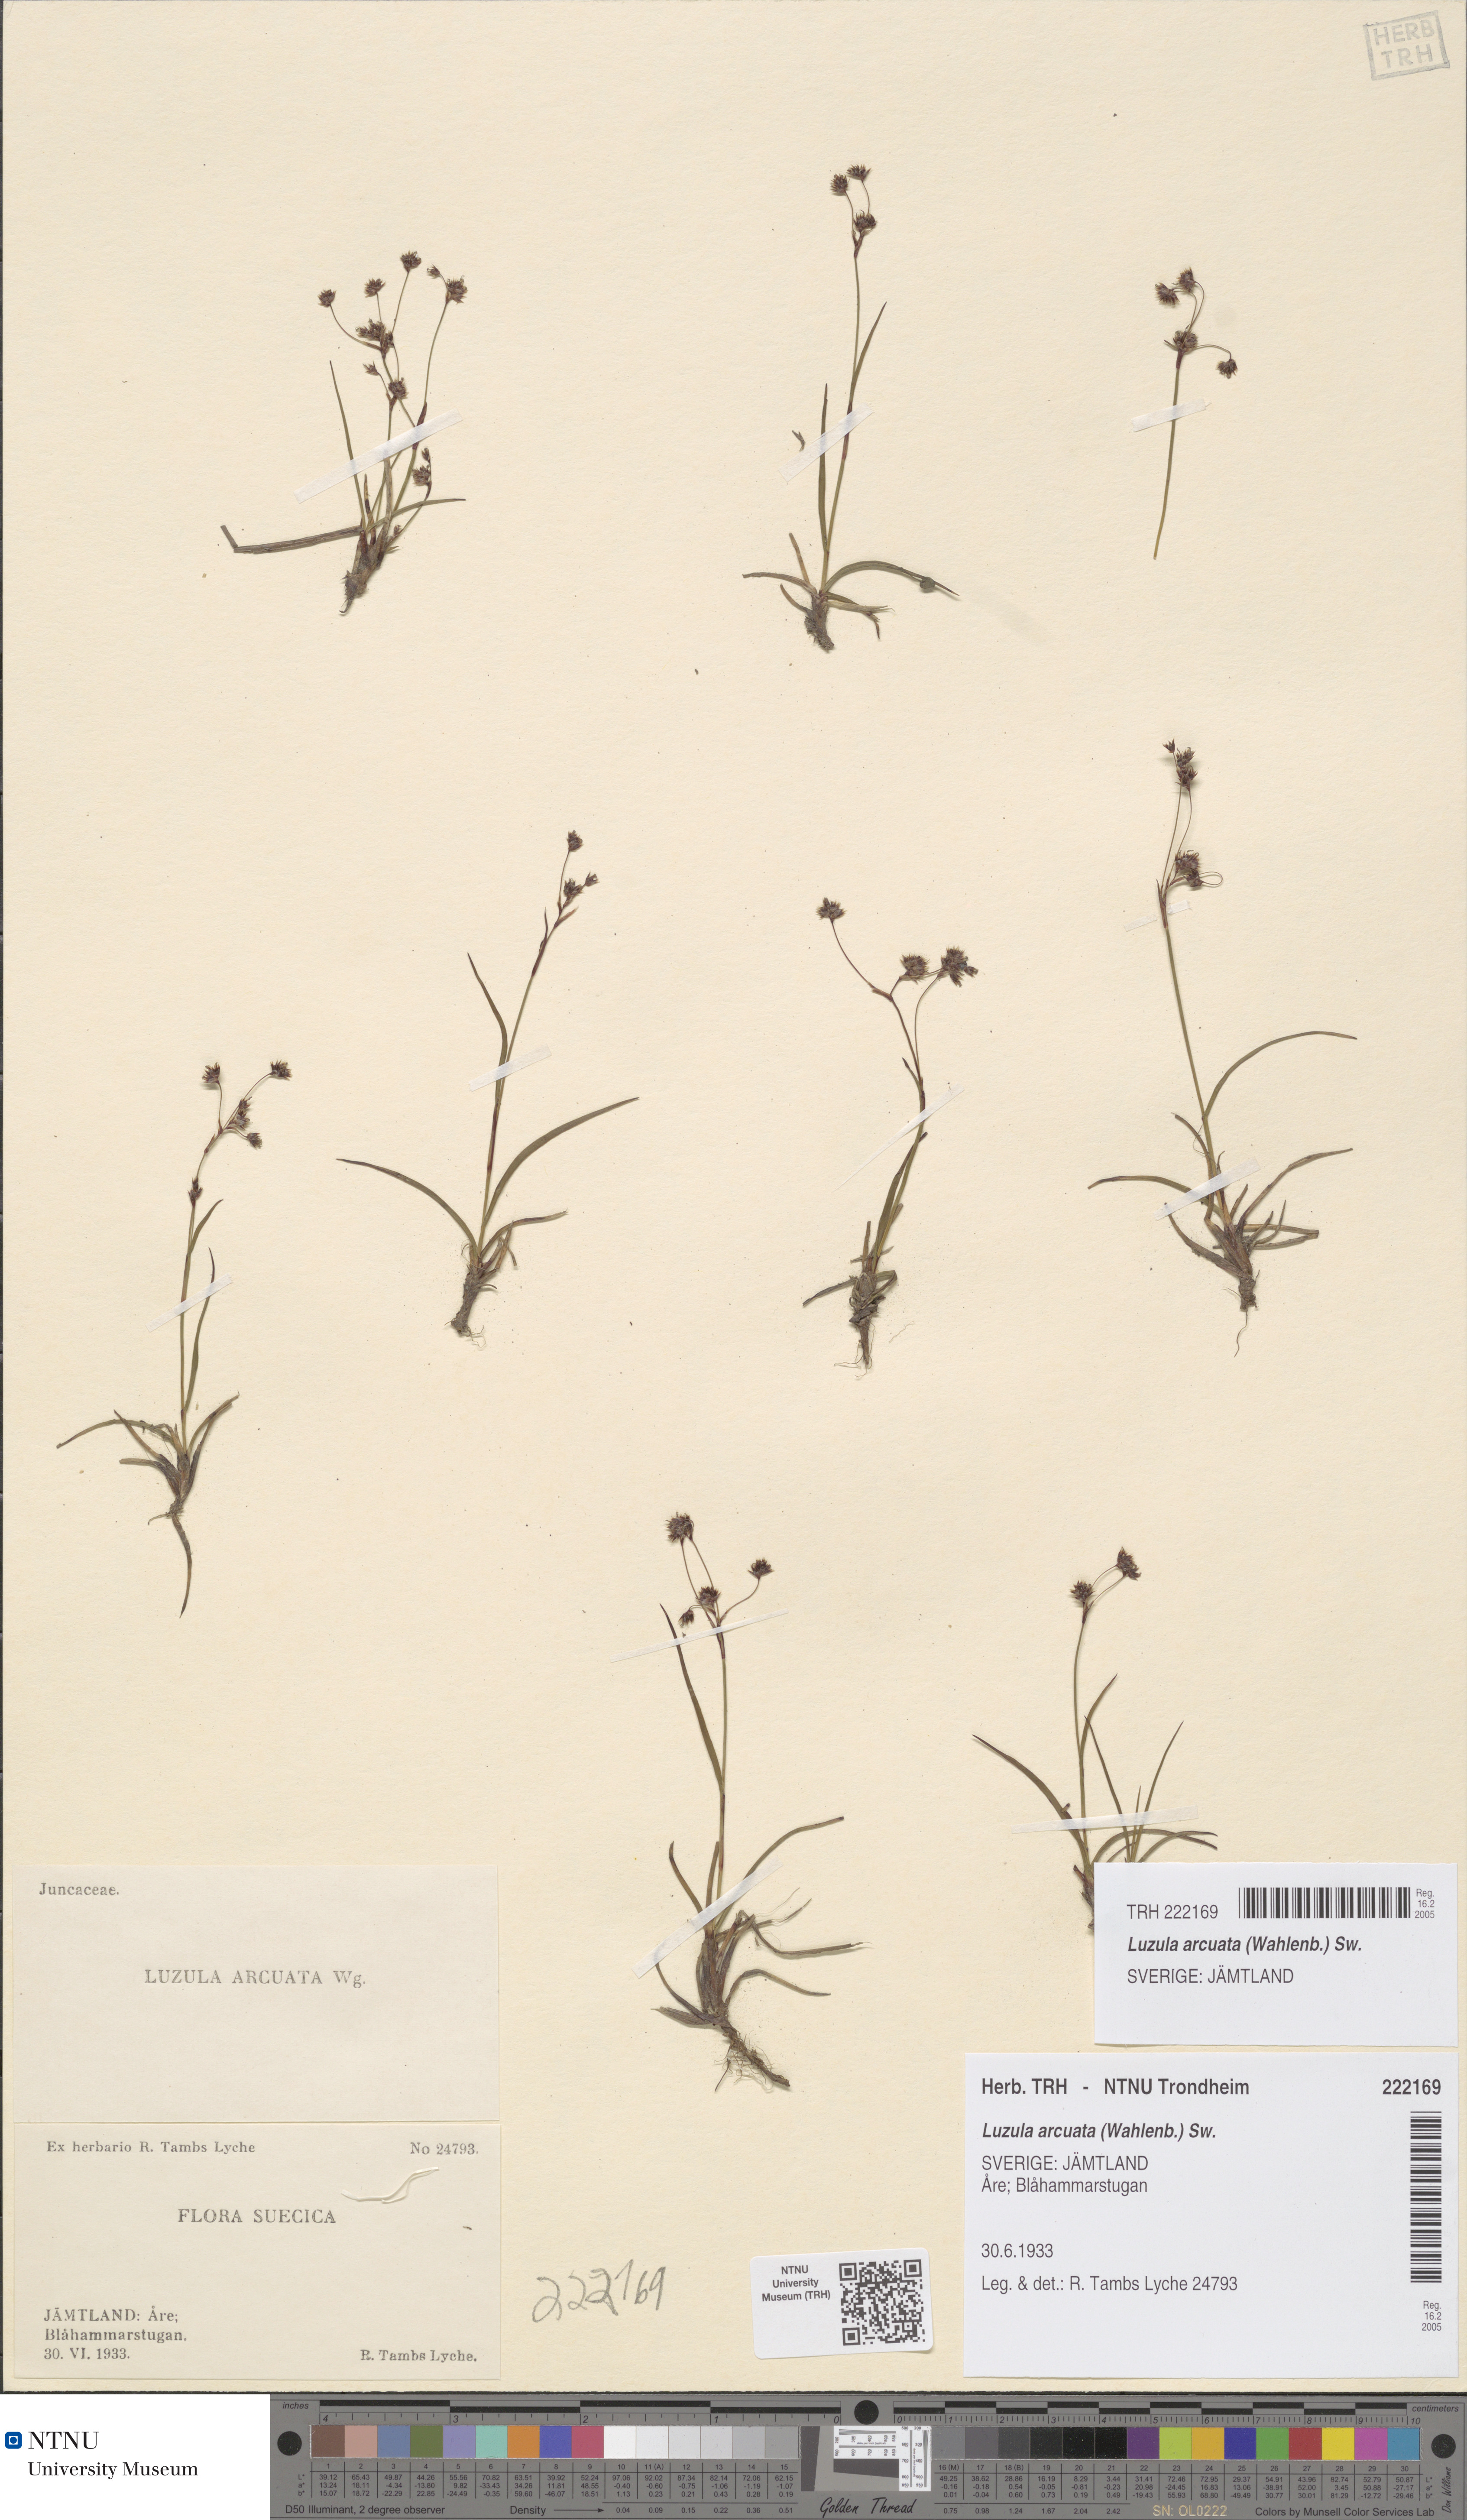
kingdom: Plantae
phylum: Tracheophyta
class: Liliopsida
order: Poales
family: Juncaceae
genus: Luzula
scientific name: Luzula arcuata
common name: Curved wood-rush
